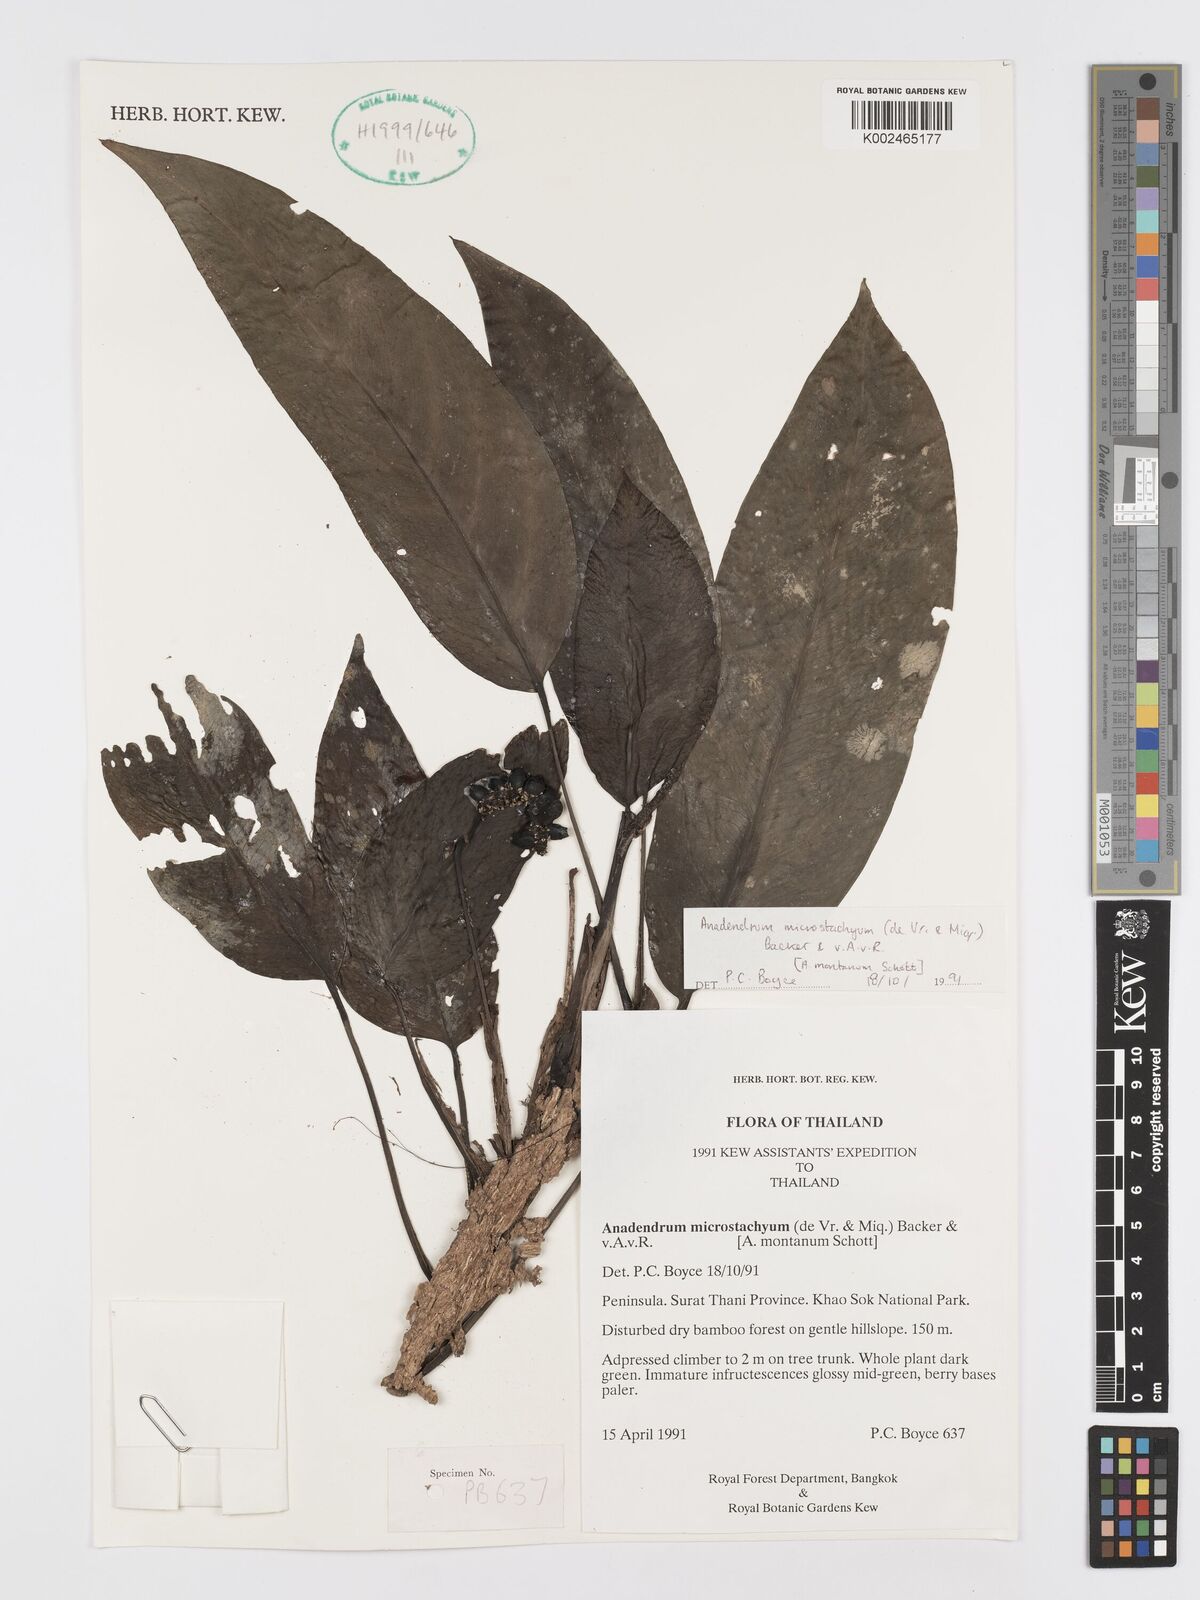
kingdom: Plantae
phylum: Tracheophyta
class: Liliopsida
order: Alismatales
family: Araceae
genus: Anadendrum
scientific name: Anadendrum microstachyum
